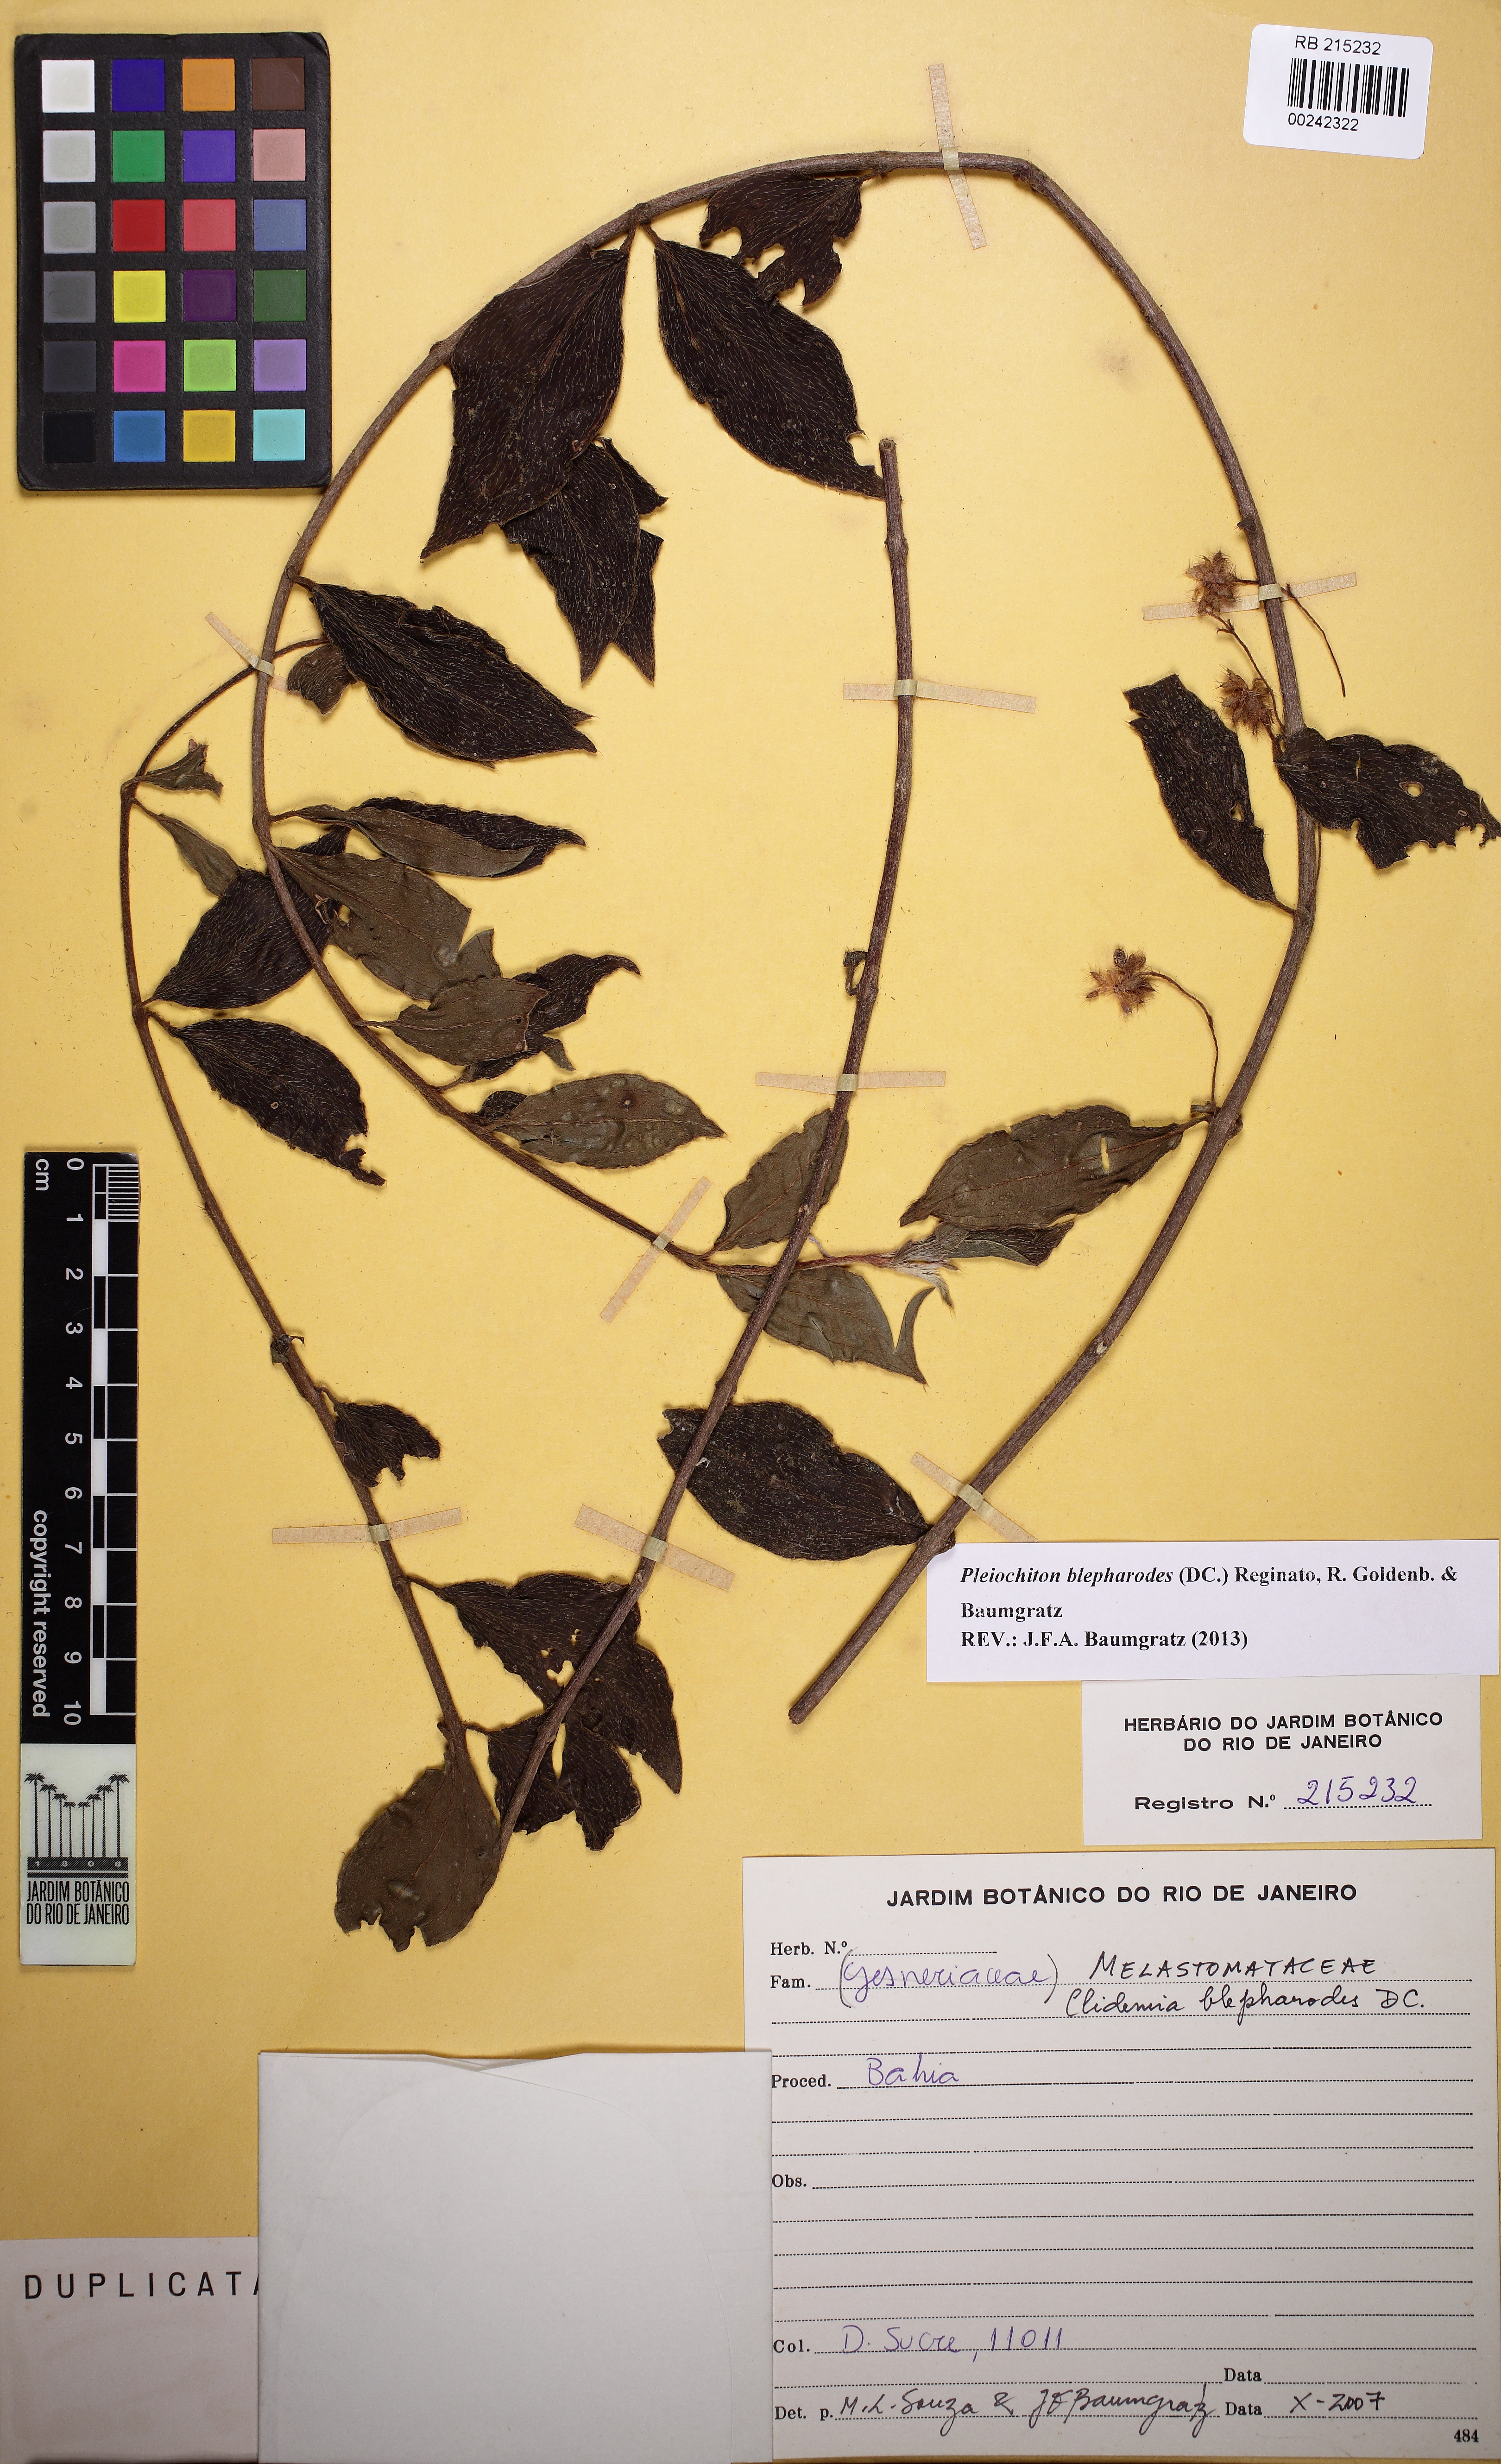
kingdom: Plantae
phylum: Tracheophyta
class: Magnoliopsida
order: Myrtales
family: Melastomataceae
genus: Miconia
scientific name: Miconia blepharodes
